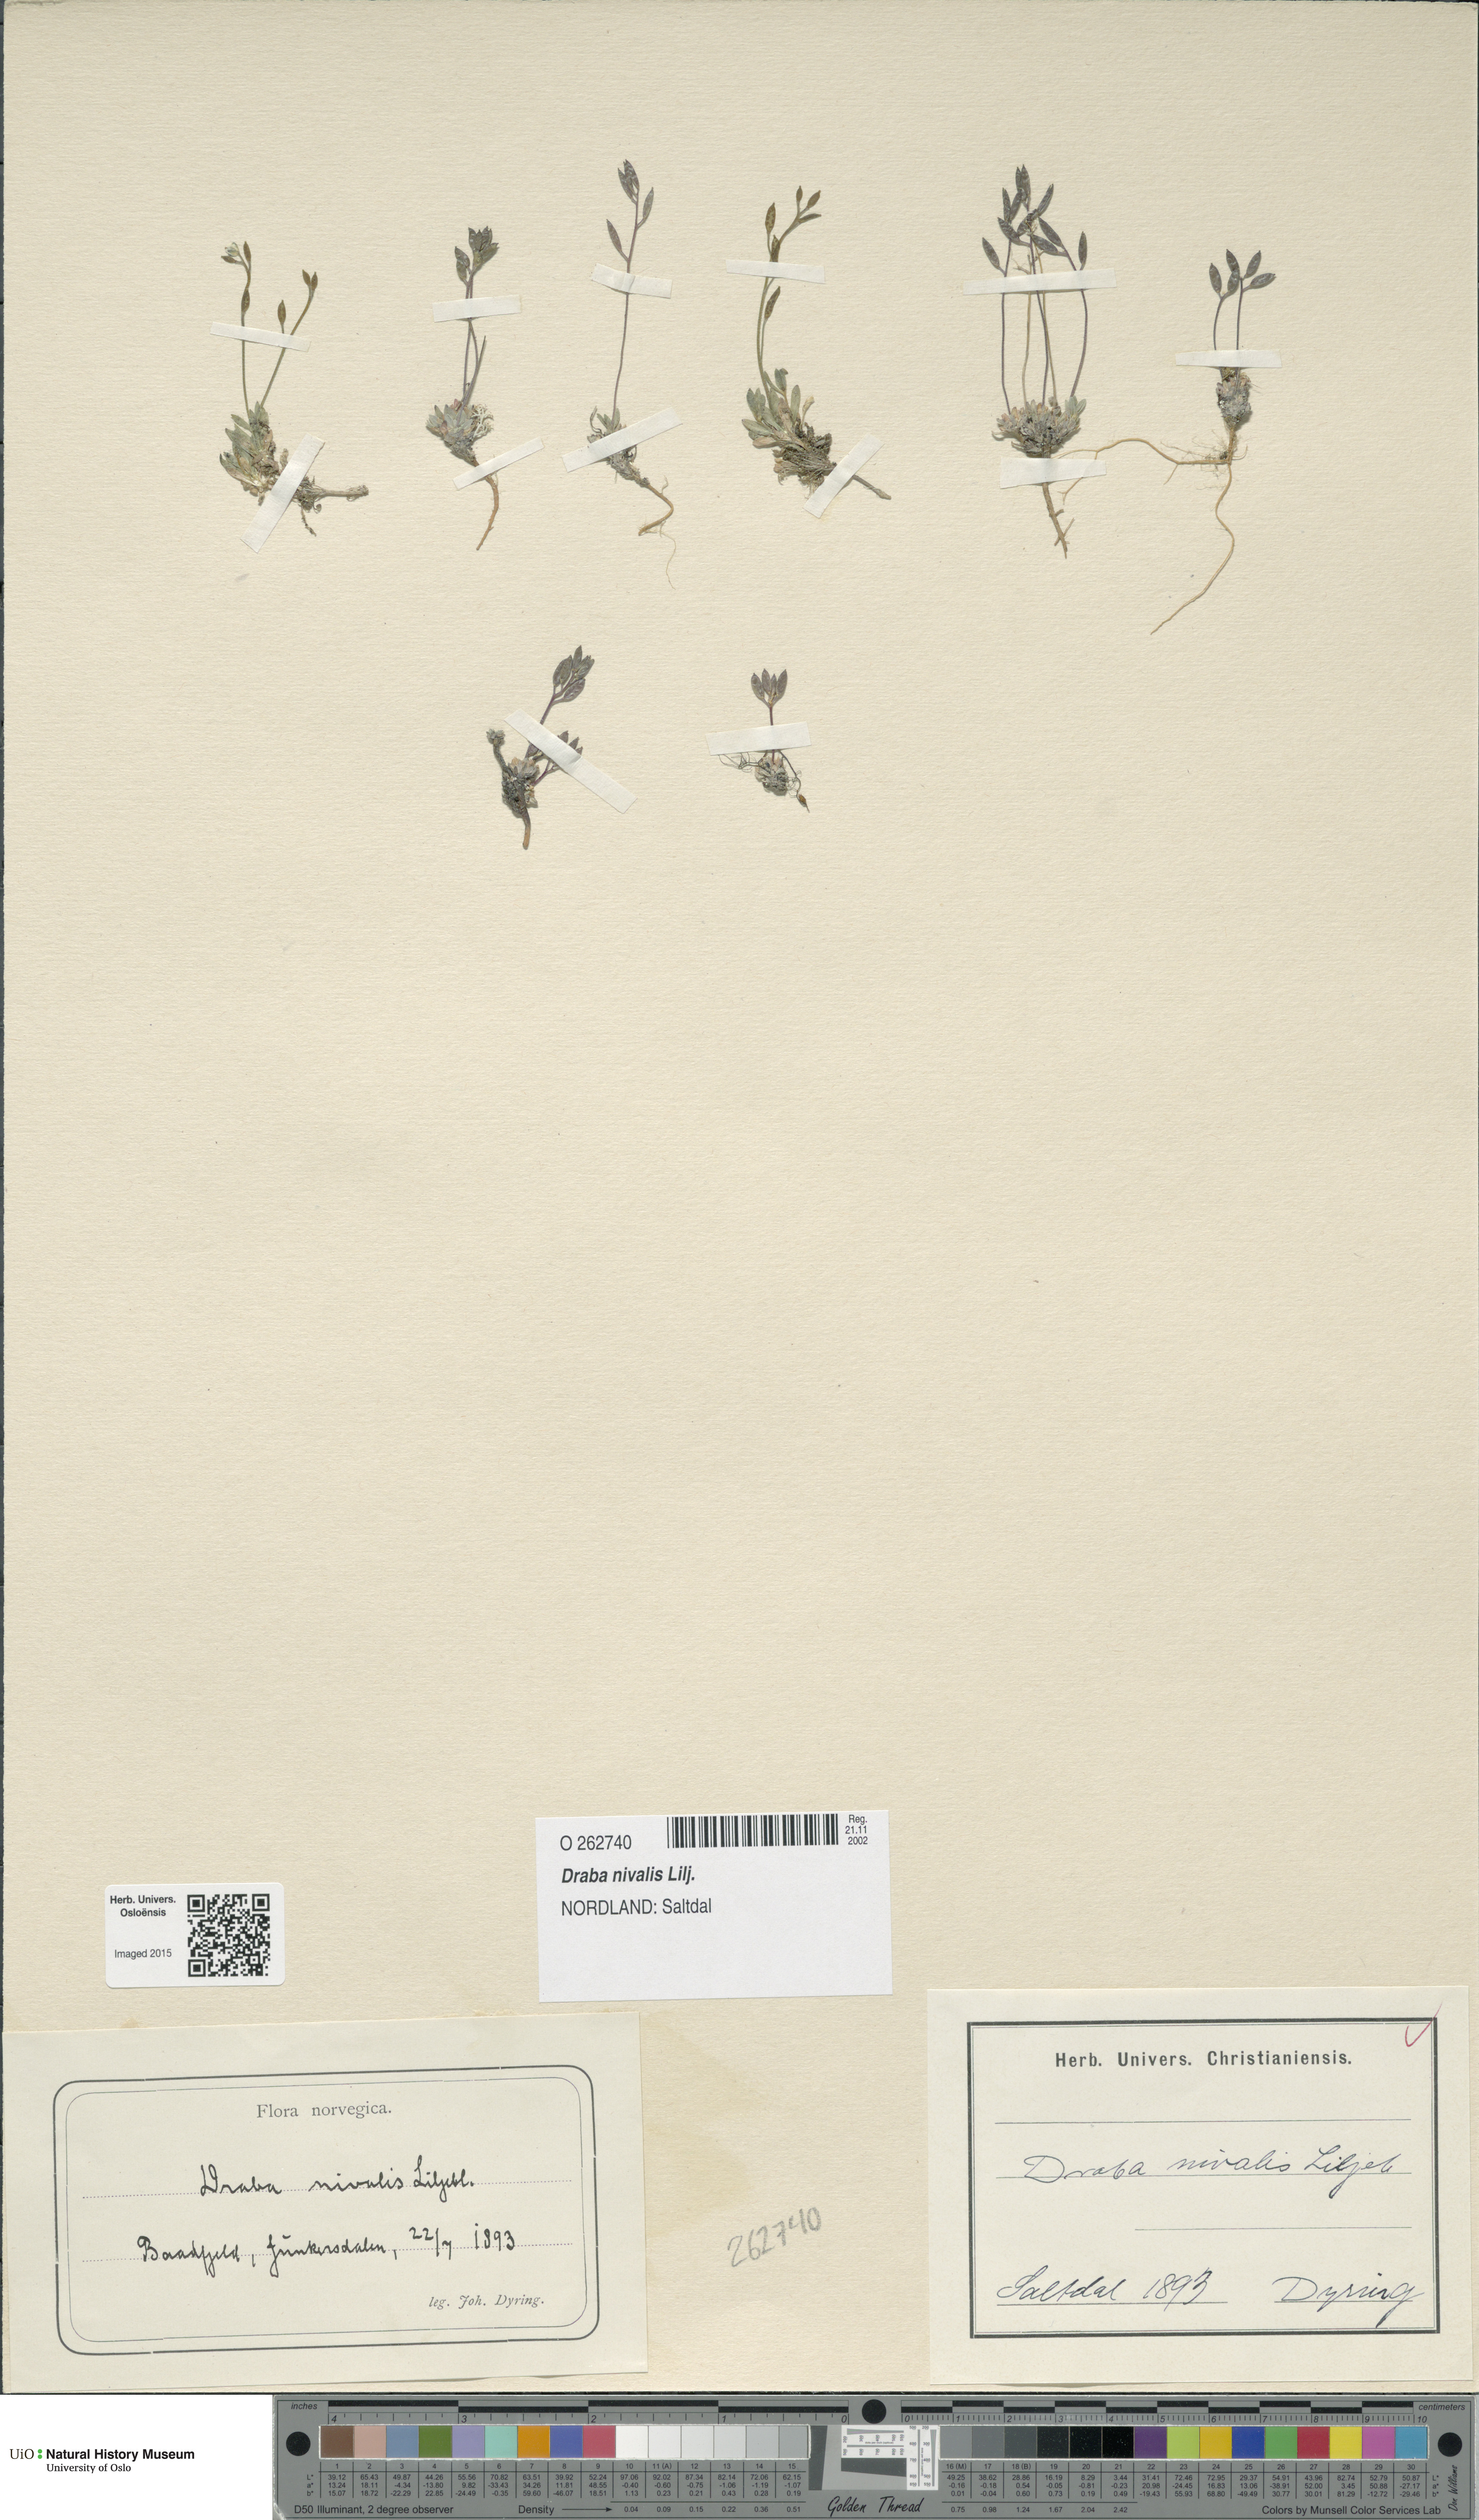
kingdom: Plantae
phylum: Tracheophyta
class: Magnoliopsida
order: Brassicales
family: Brassicaceae
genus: Draba
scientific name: Draba nivalis
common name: Snow draba
